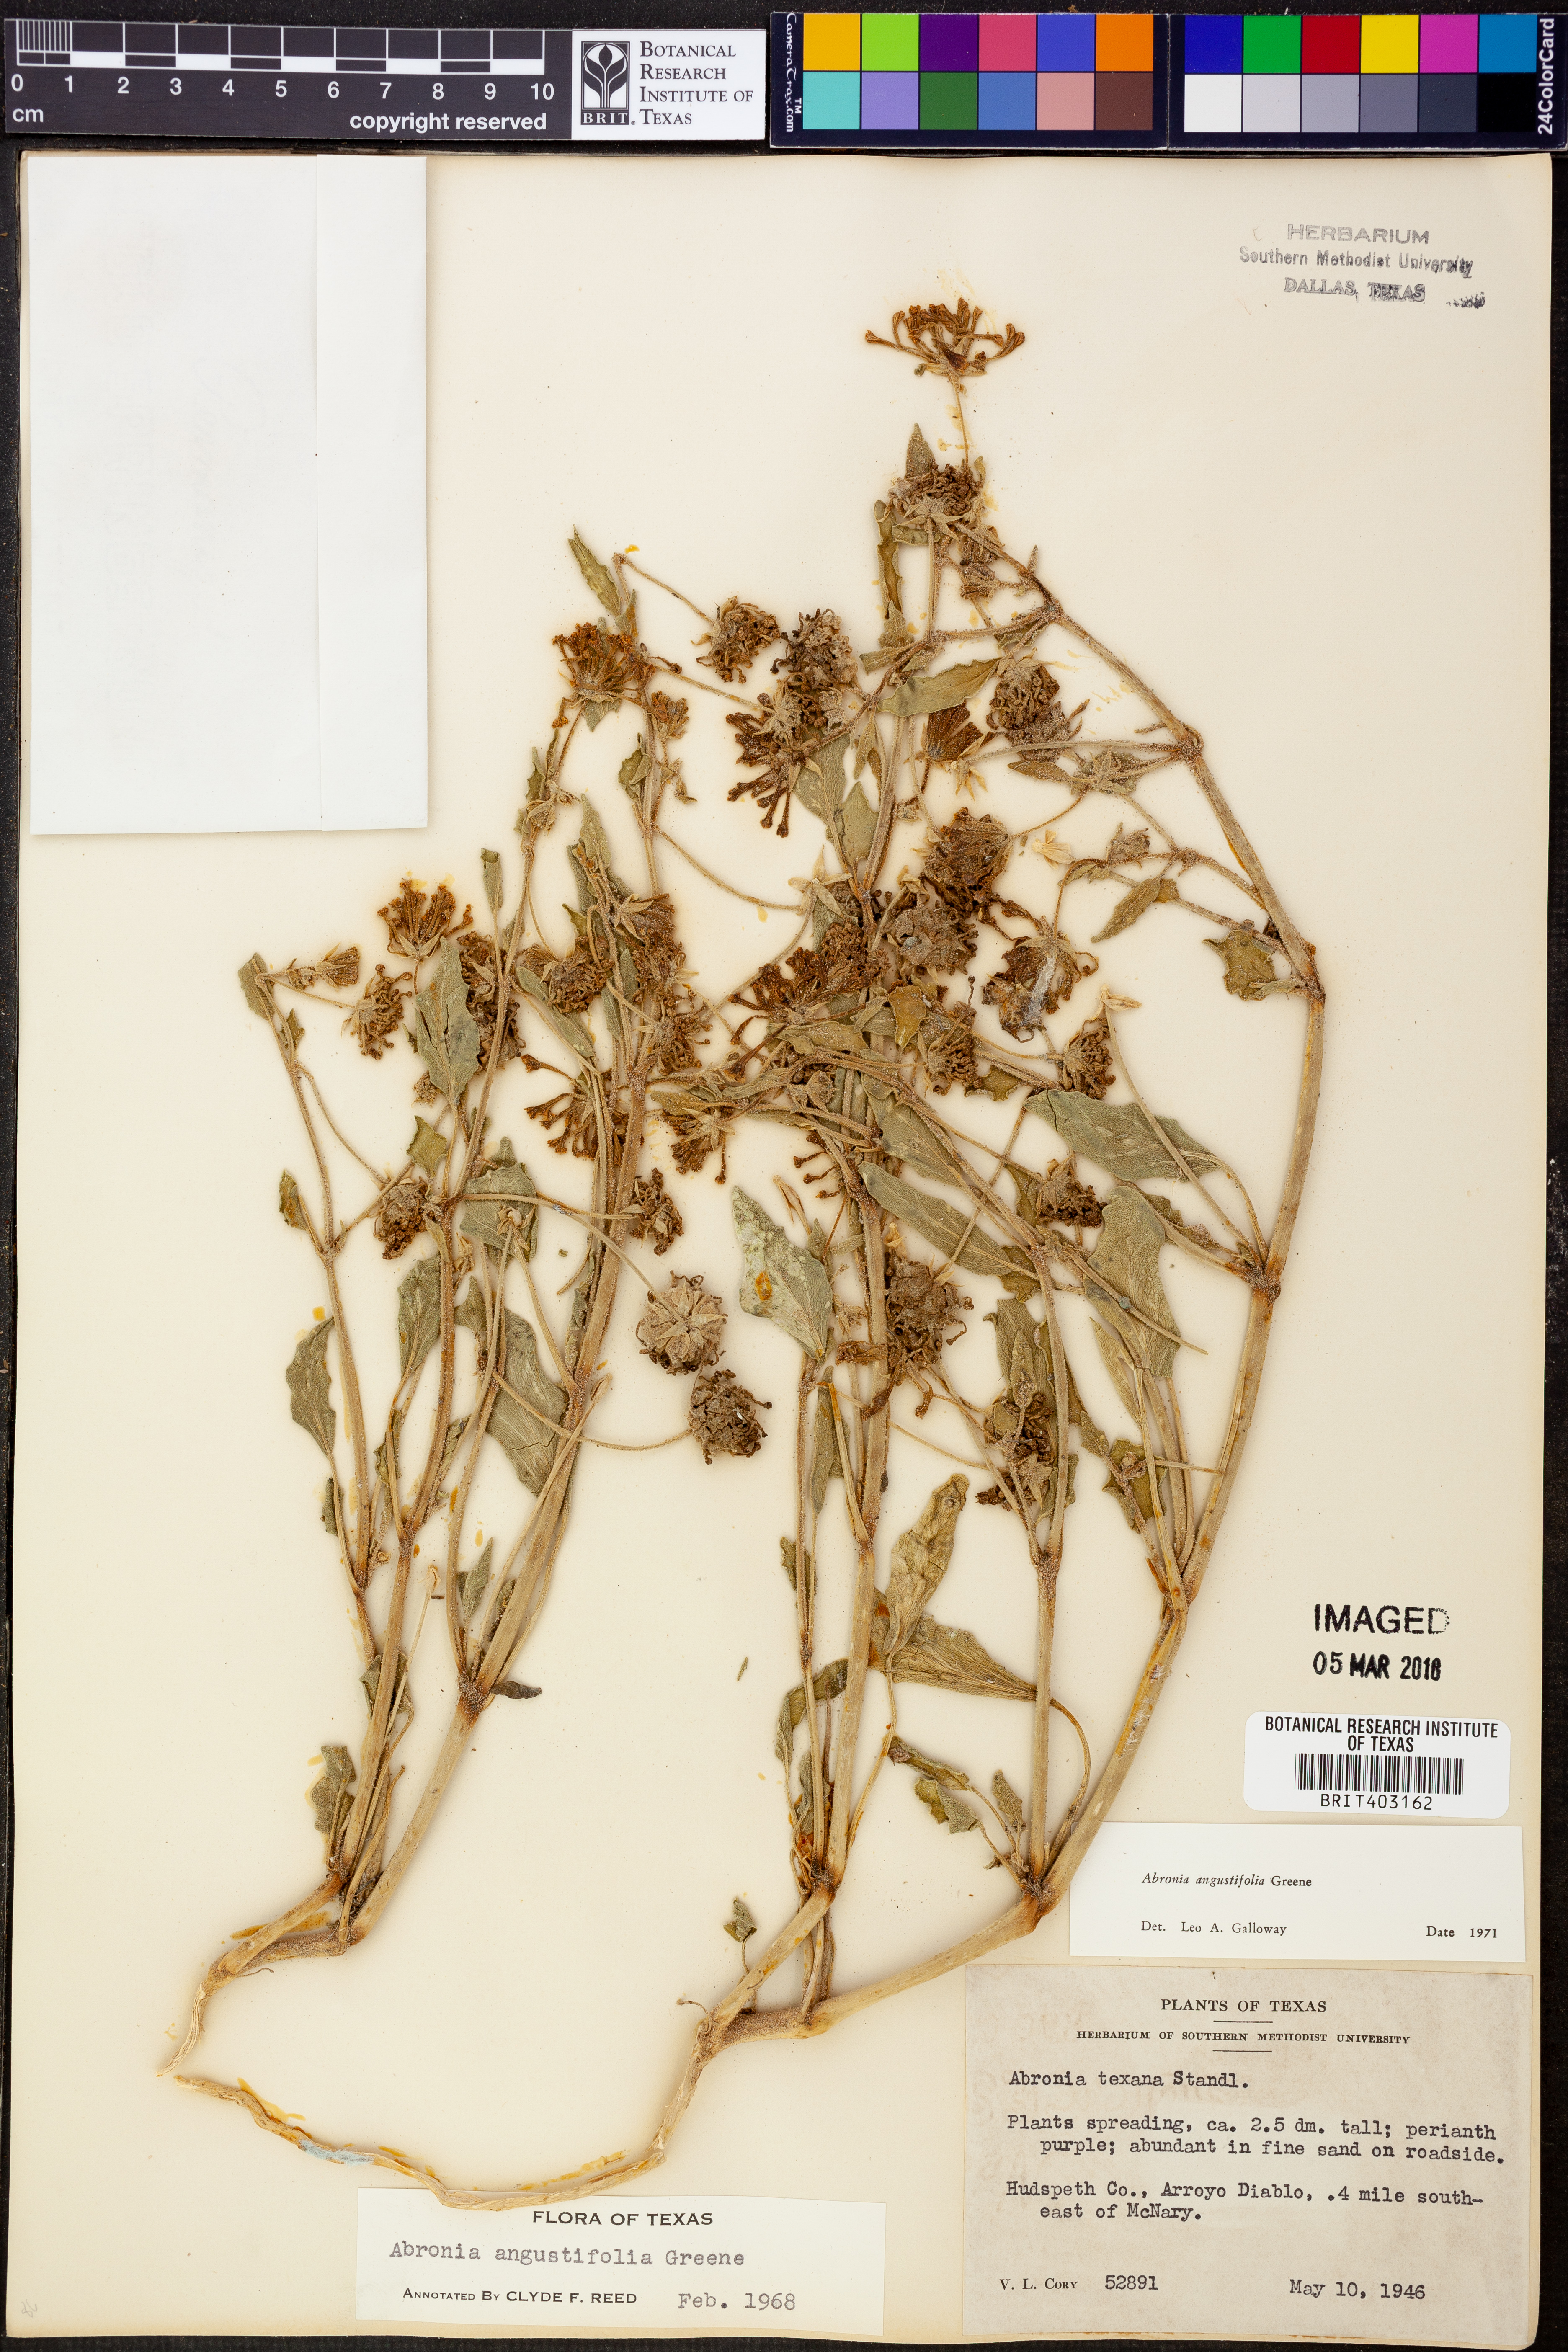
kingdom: Plantae
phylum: Tracheophyta
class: Magnoliopsida
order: Caryophyllales
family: Nyctaginaceae
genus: Abronia
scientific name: Abronia angustifolia
